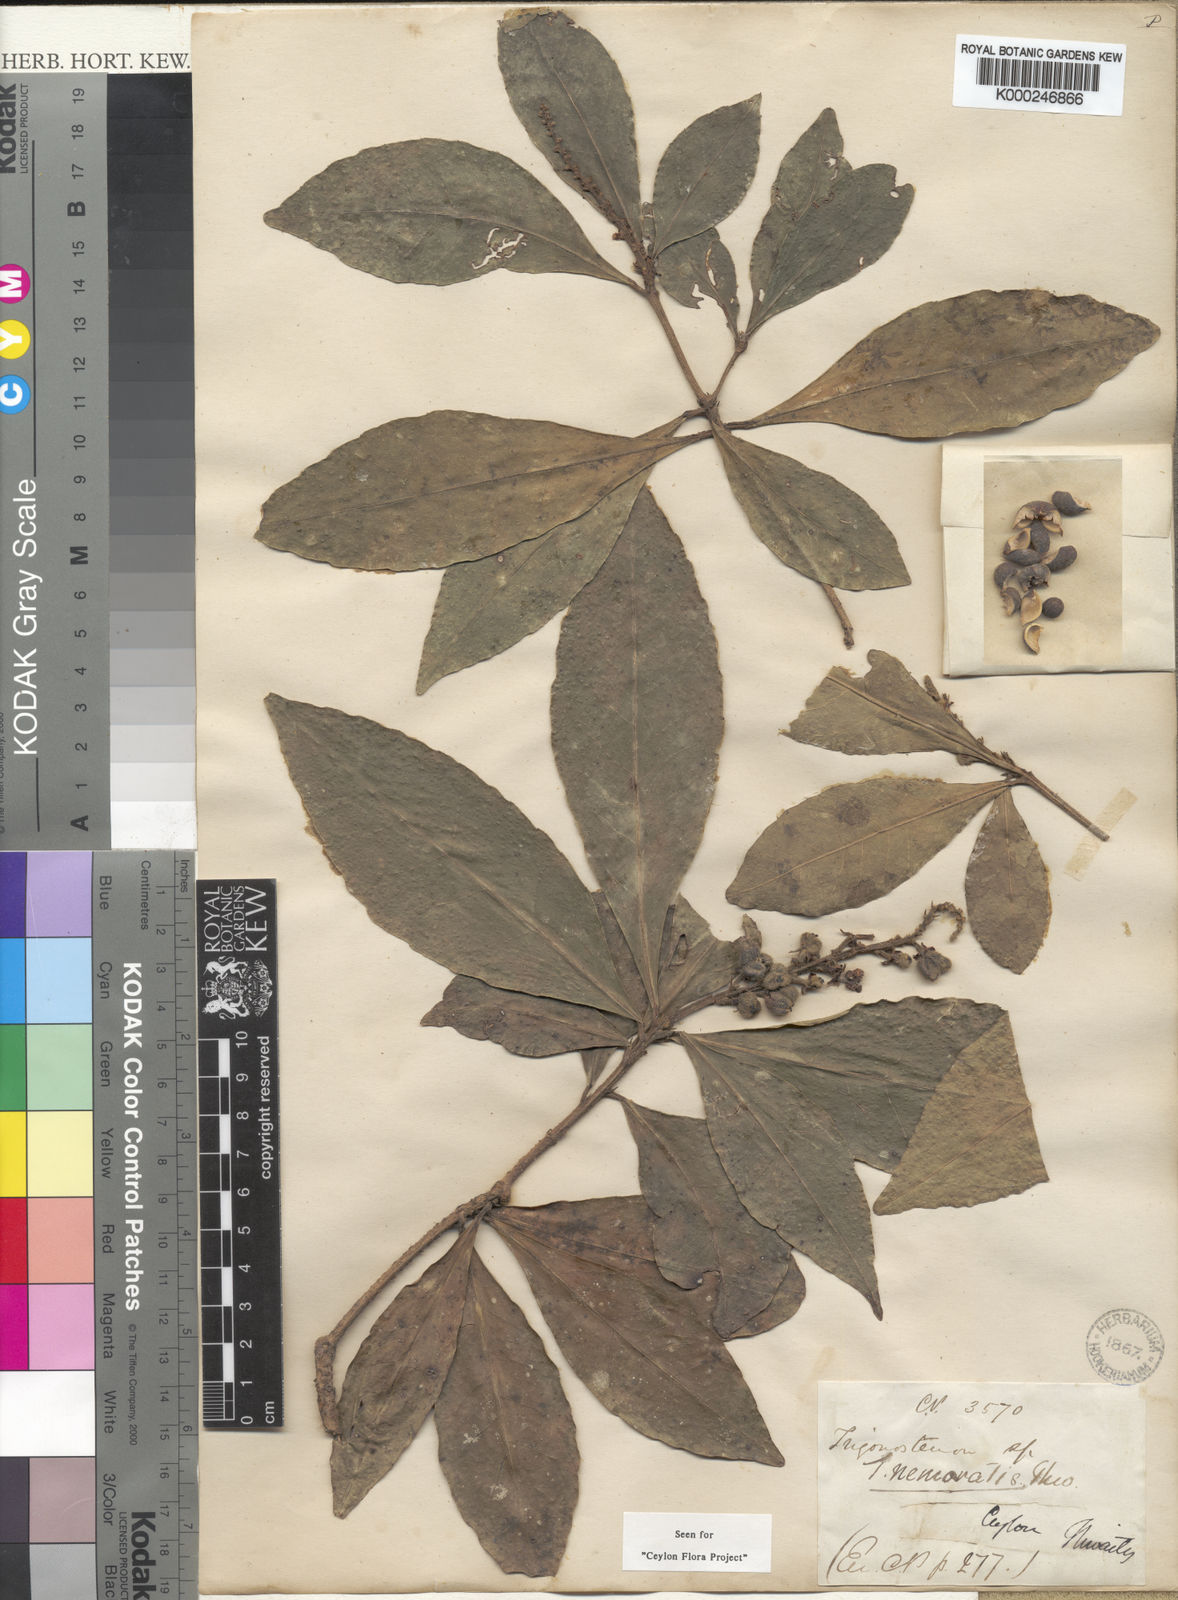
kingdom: Plantae
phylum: Tracheophyta
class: Magnoliopsida
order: Malpighiales
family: Euphorbiaceae
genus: Trigonostemon
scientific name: Trigonostemon nemoralis
